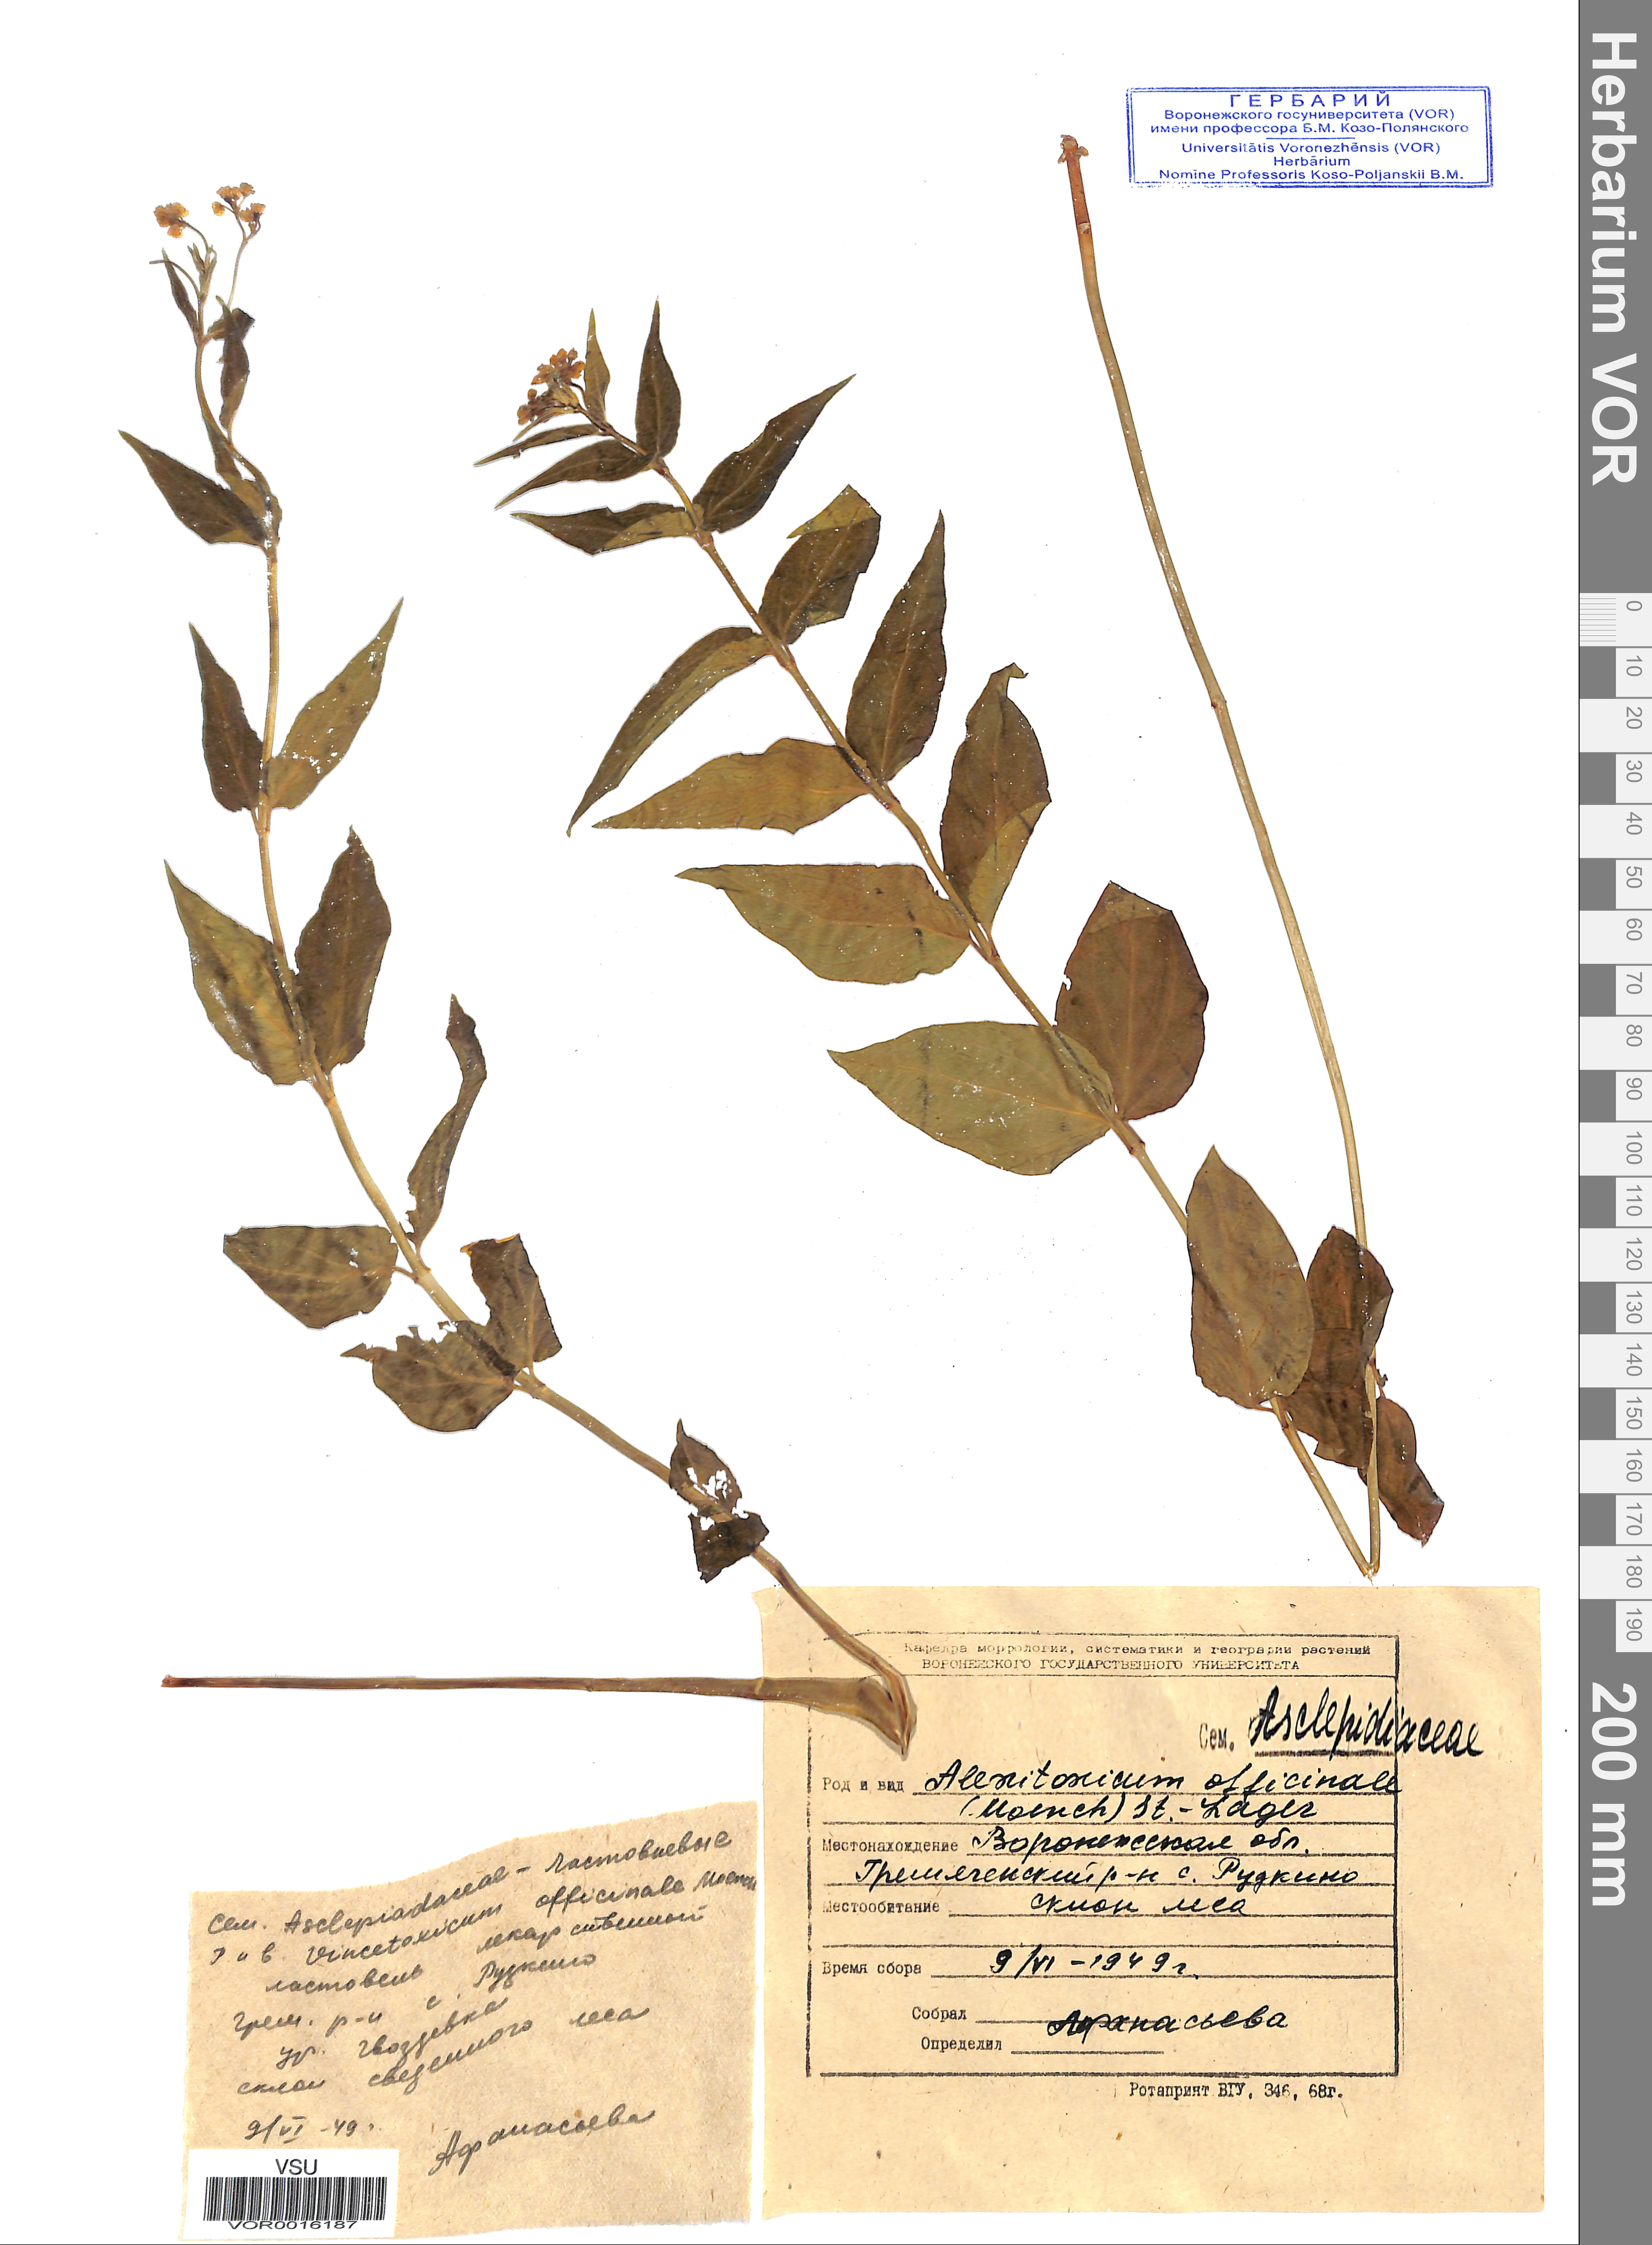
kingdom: Plantae
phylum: Tracheophyta
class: Magnoliopsida
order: Gentianales
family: Apocynaceae
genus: Vincetoxicum
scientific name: Vincetoxicum hirundinaria
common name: White swallowwort
